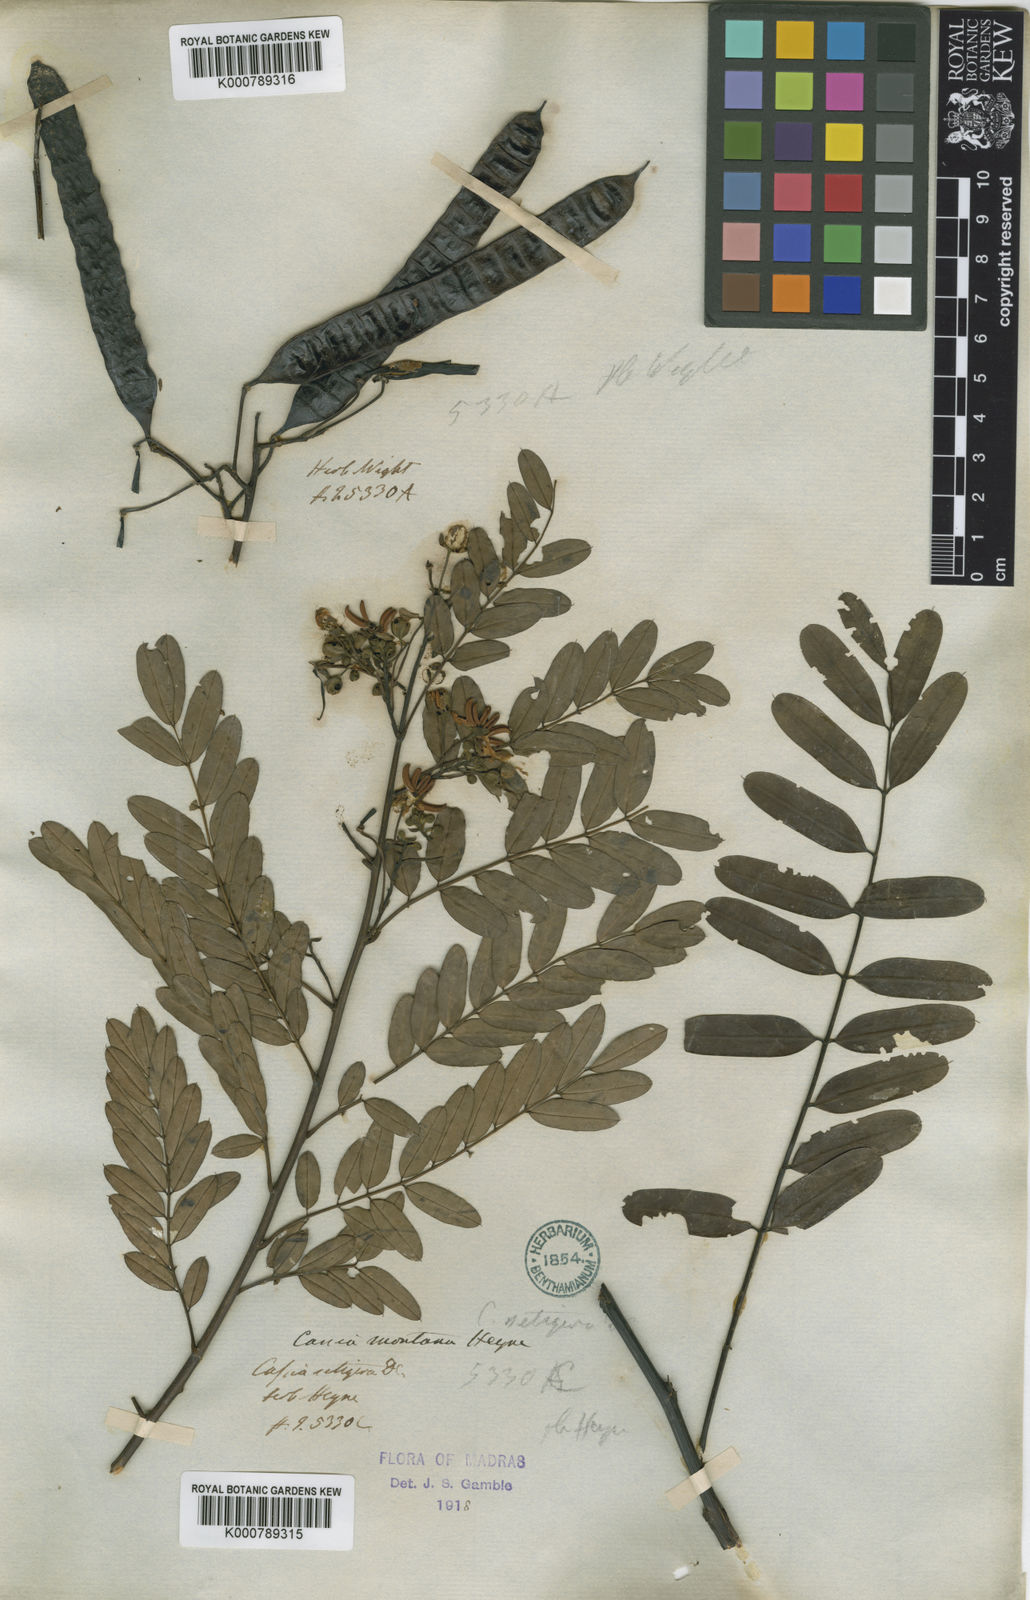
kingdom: Plantae
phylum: Tracheophyta
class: Magnoliopsida
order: Fabales
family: Fabaceae
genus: Cassia
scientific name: Cassia
